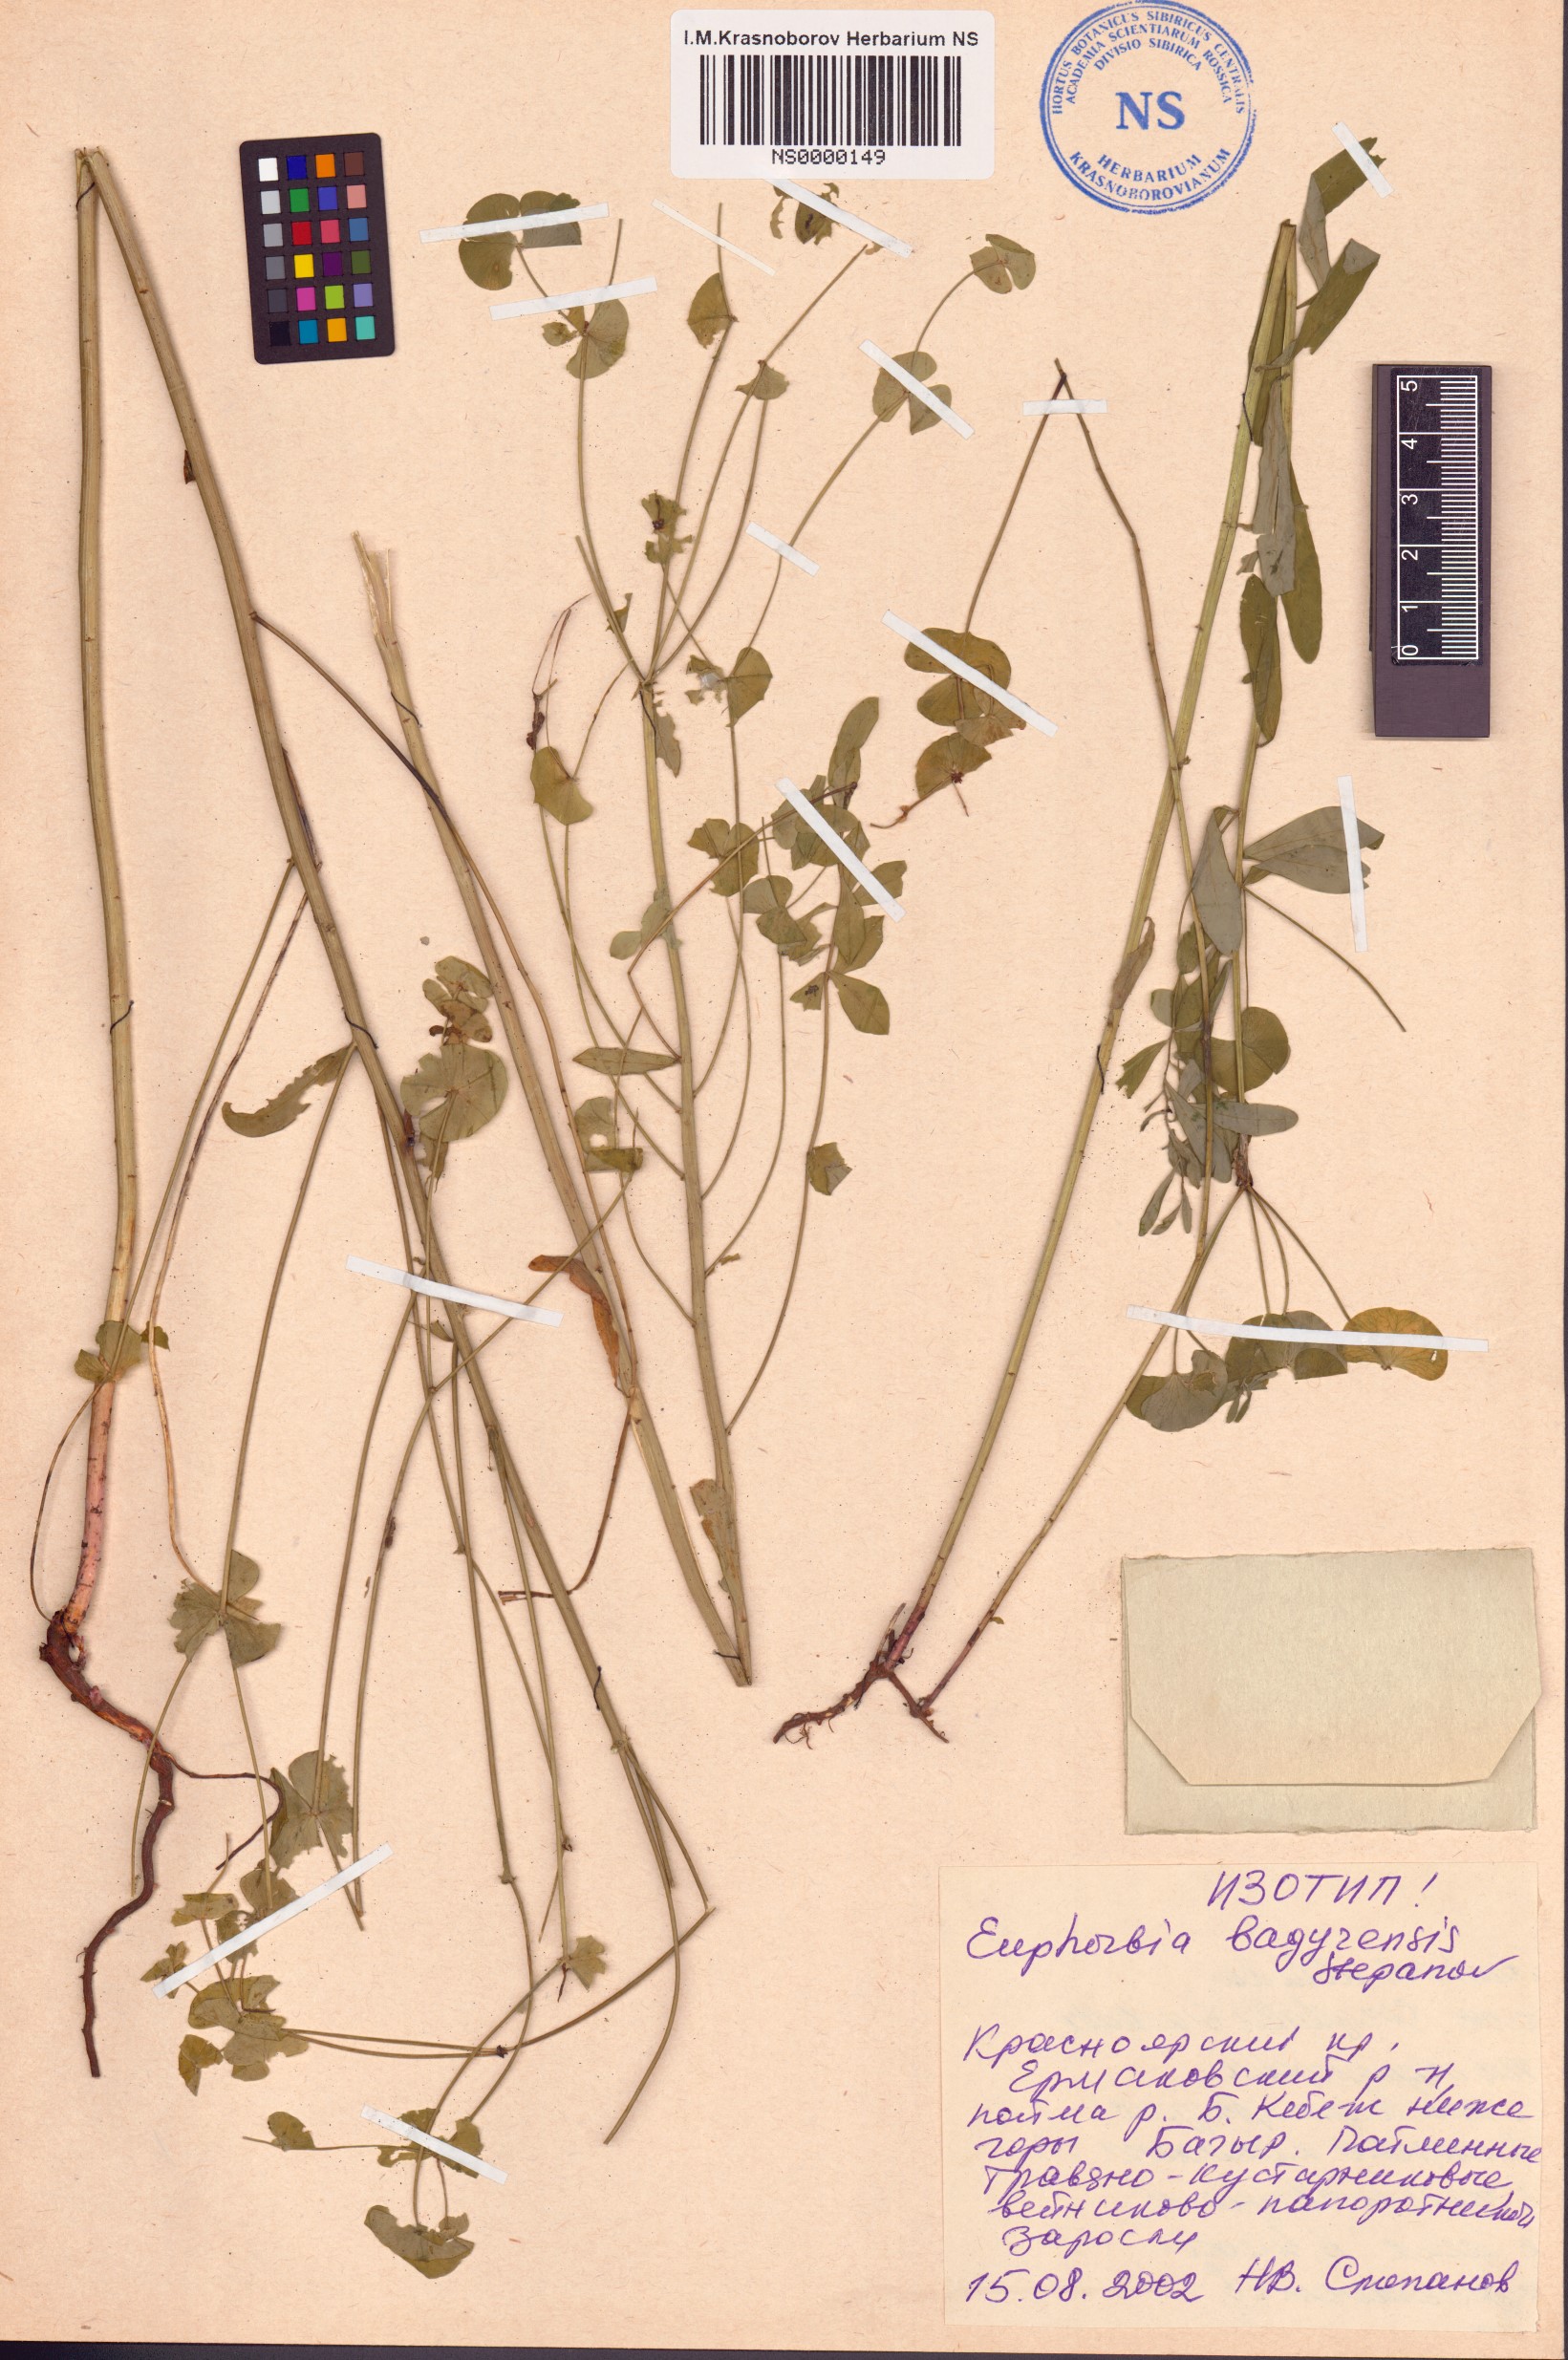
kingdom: Plantae
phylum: Tracheophyta
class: Magnoliopsida
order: Malpighiales
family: Euphorbiaceae
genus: Euphorbia
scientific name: Euphorbia bagyrensis
